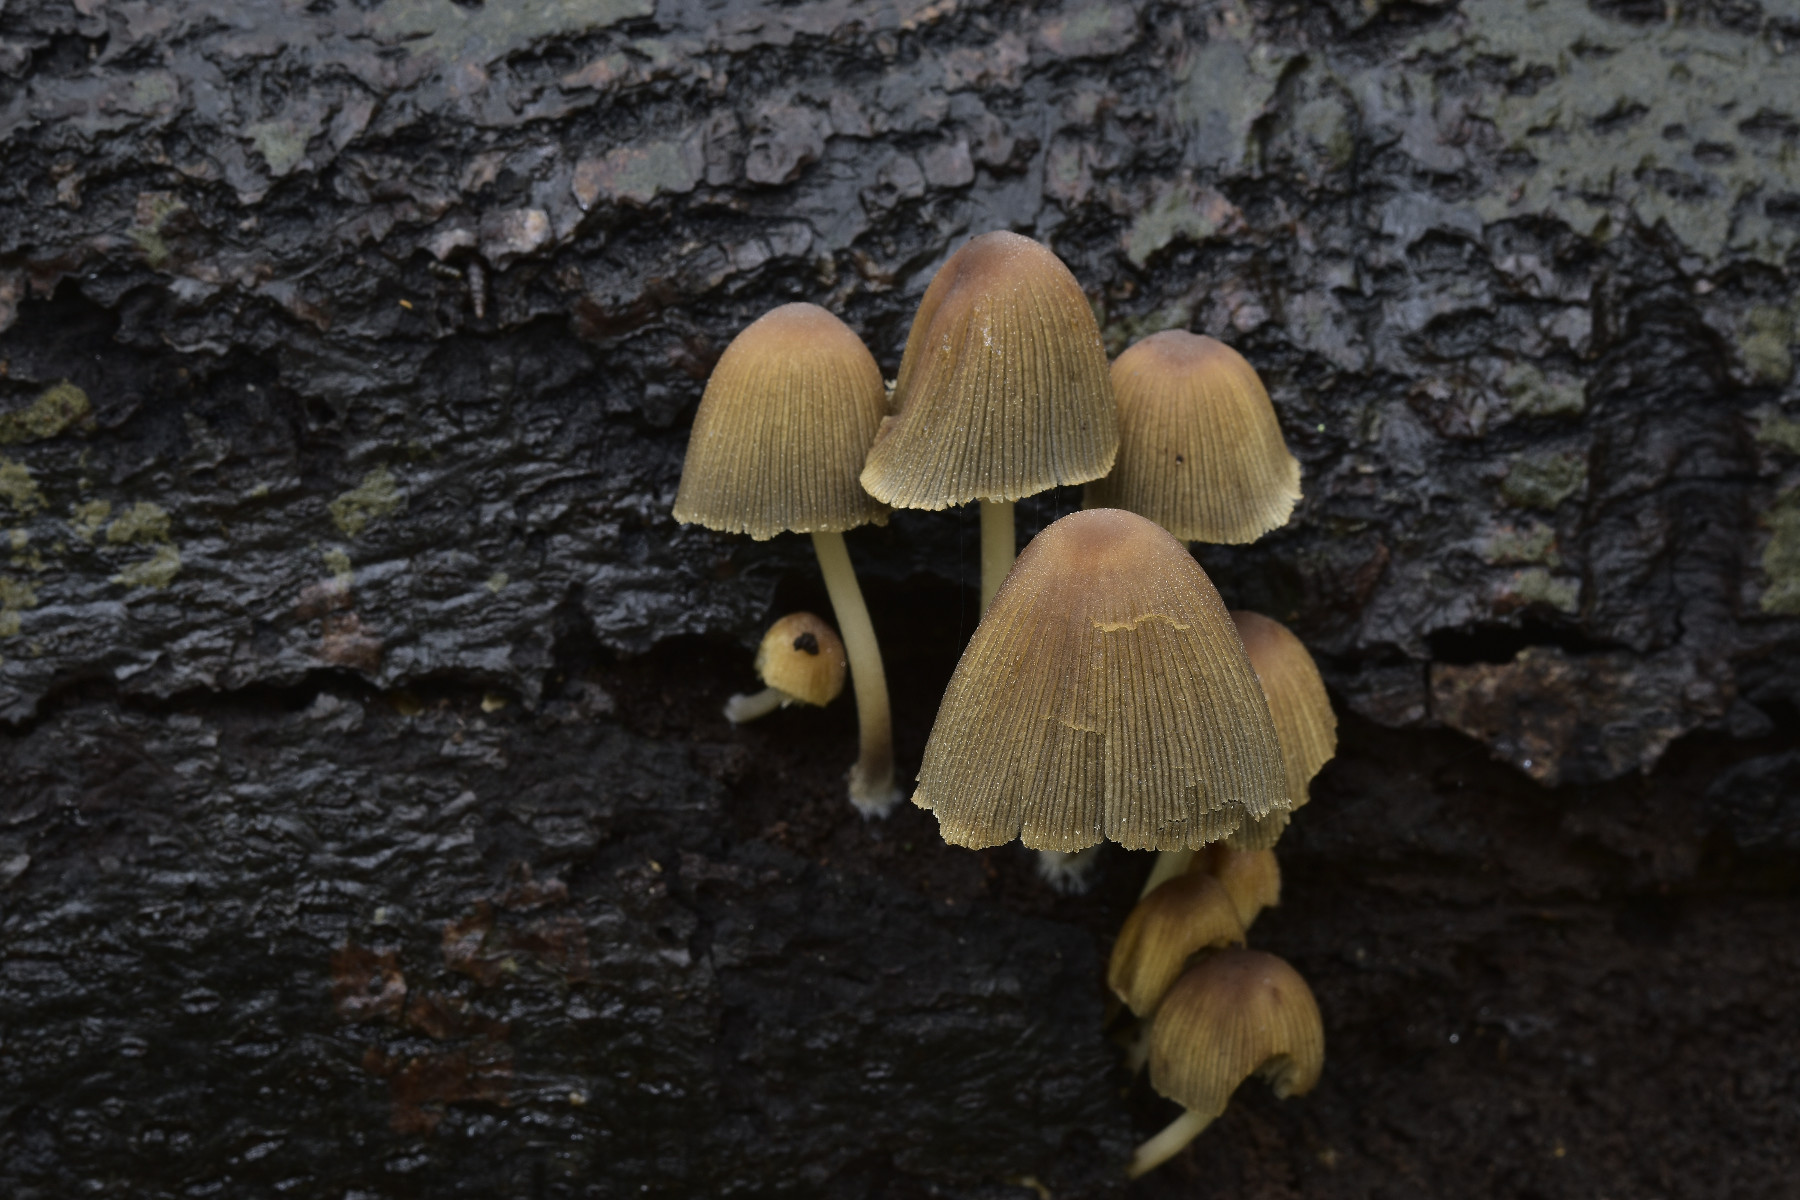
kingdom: Fungi
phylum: Basidiomycota
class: Agaricomycetes
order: Agaricales
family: Psathyrellaceae
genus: Coprinellus
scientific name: Coprinellus micaceus
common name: glimmer-blækhat
